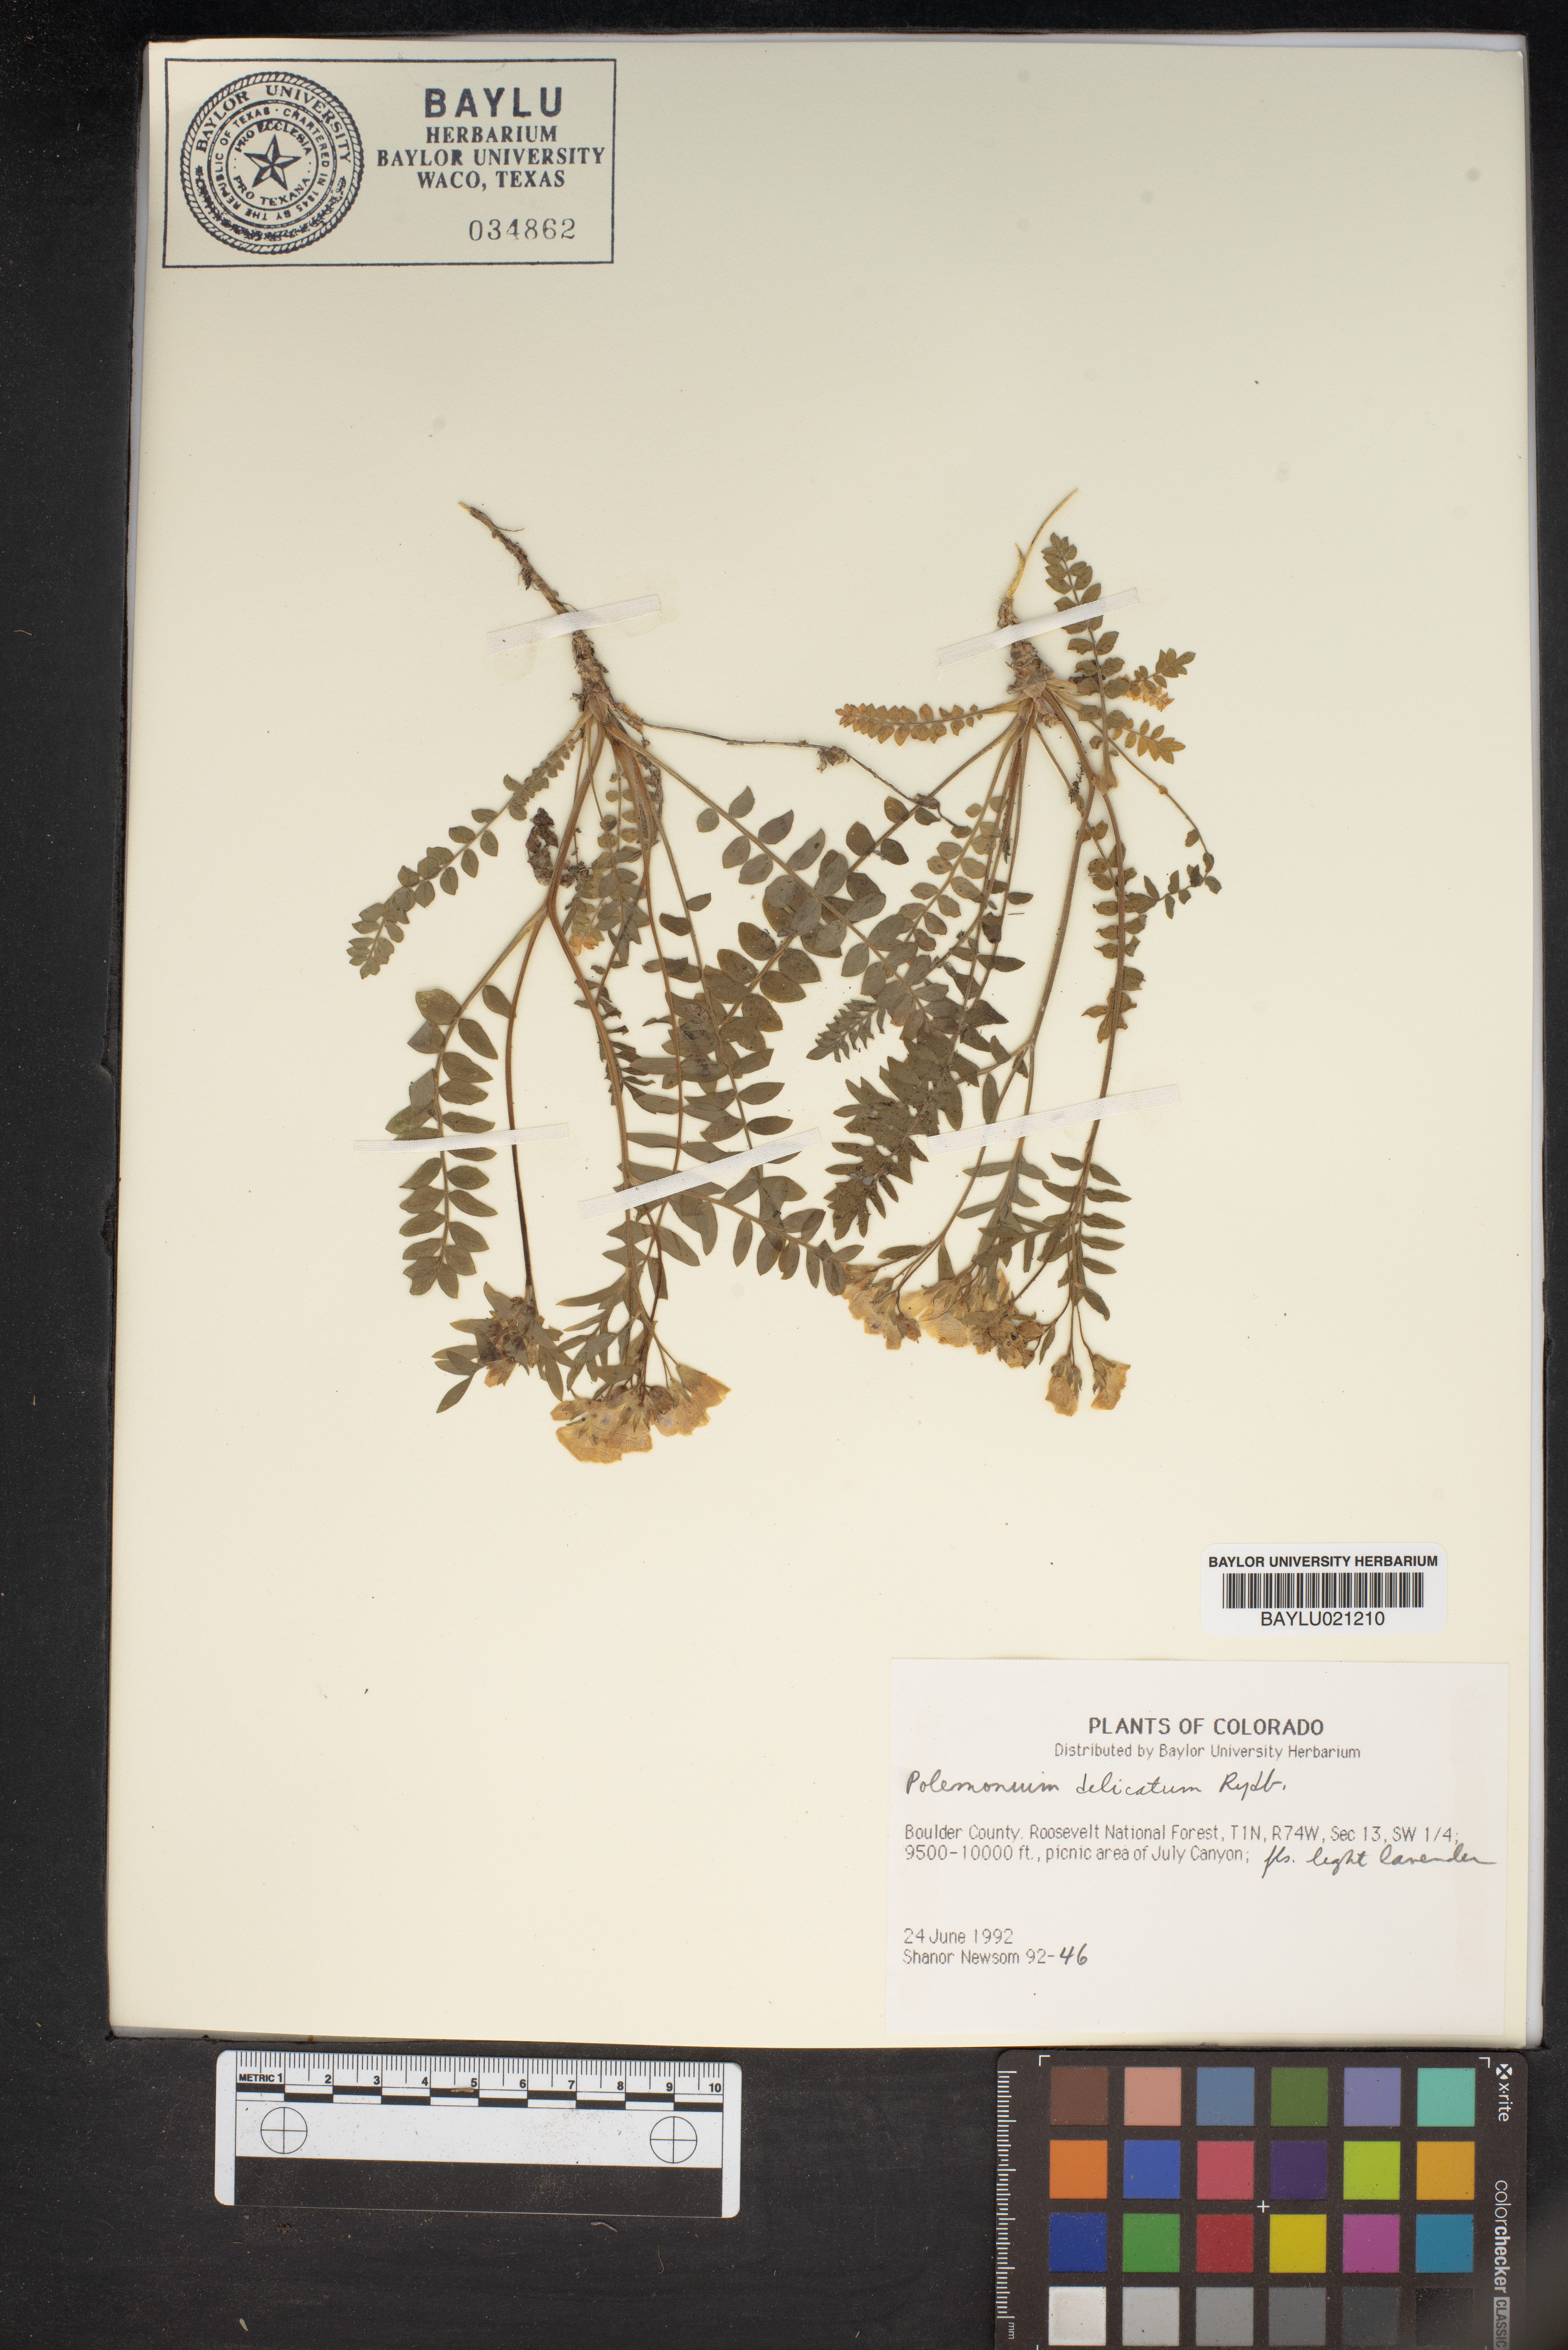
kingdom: Plantae
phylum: Tracheophyta
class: Magnoliopsida
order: Ericales
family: Polemoniaceae
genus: Polemonium
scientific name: Polemonium pulcherrimum
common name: Short jacob's-ladder
